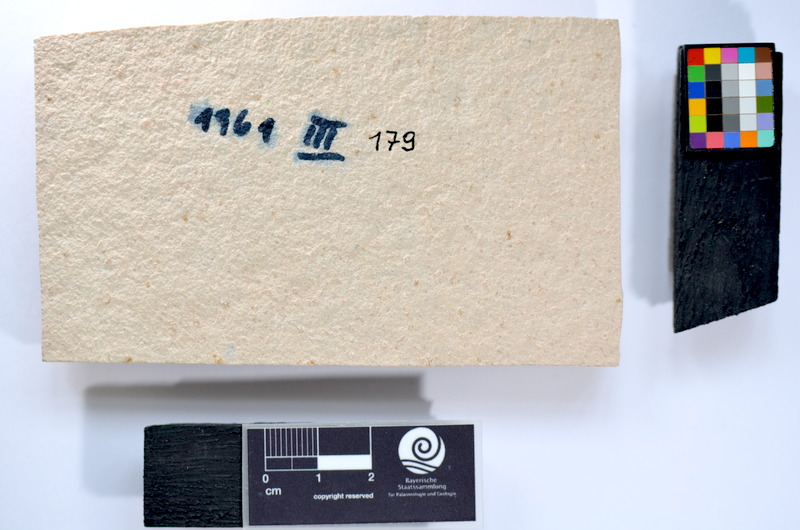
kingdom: Animalia
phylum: Chordata
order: Salmoniformes
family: Orthogonikleithridae
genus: Leptolepides
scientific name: Leptolepides
